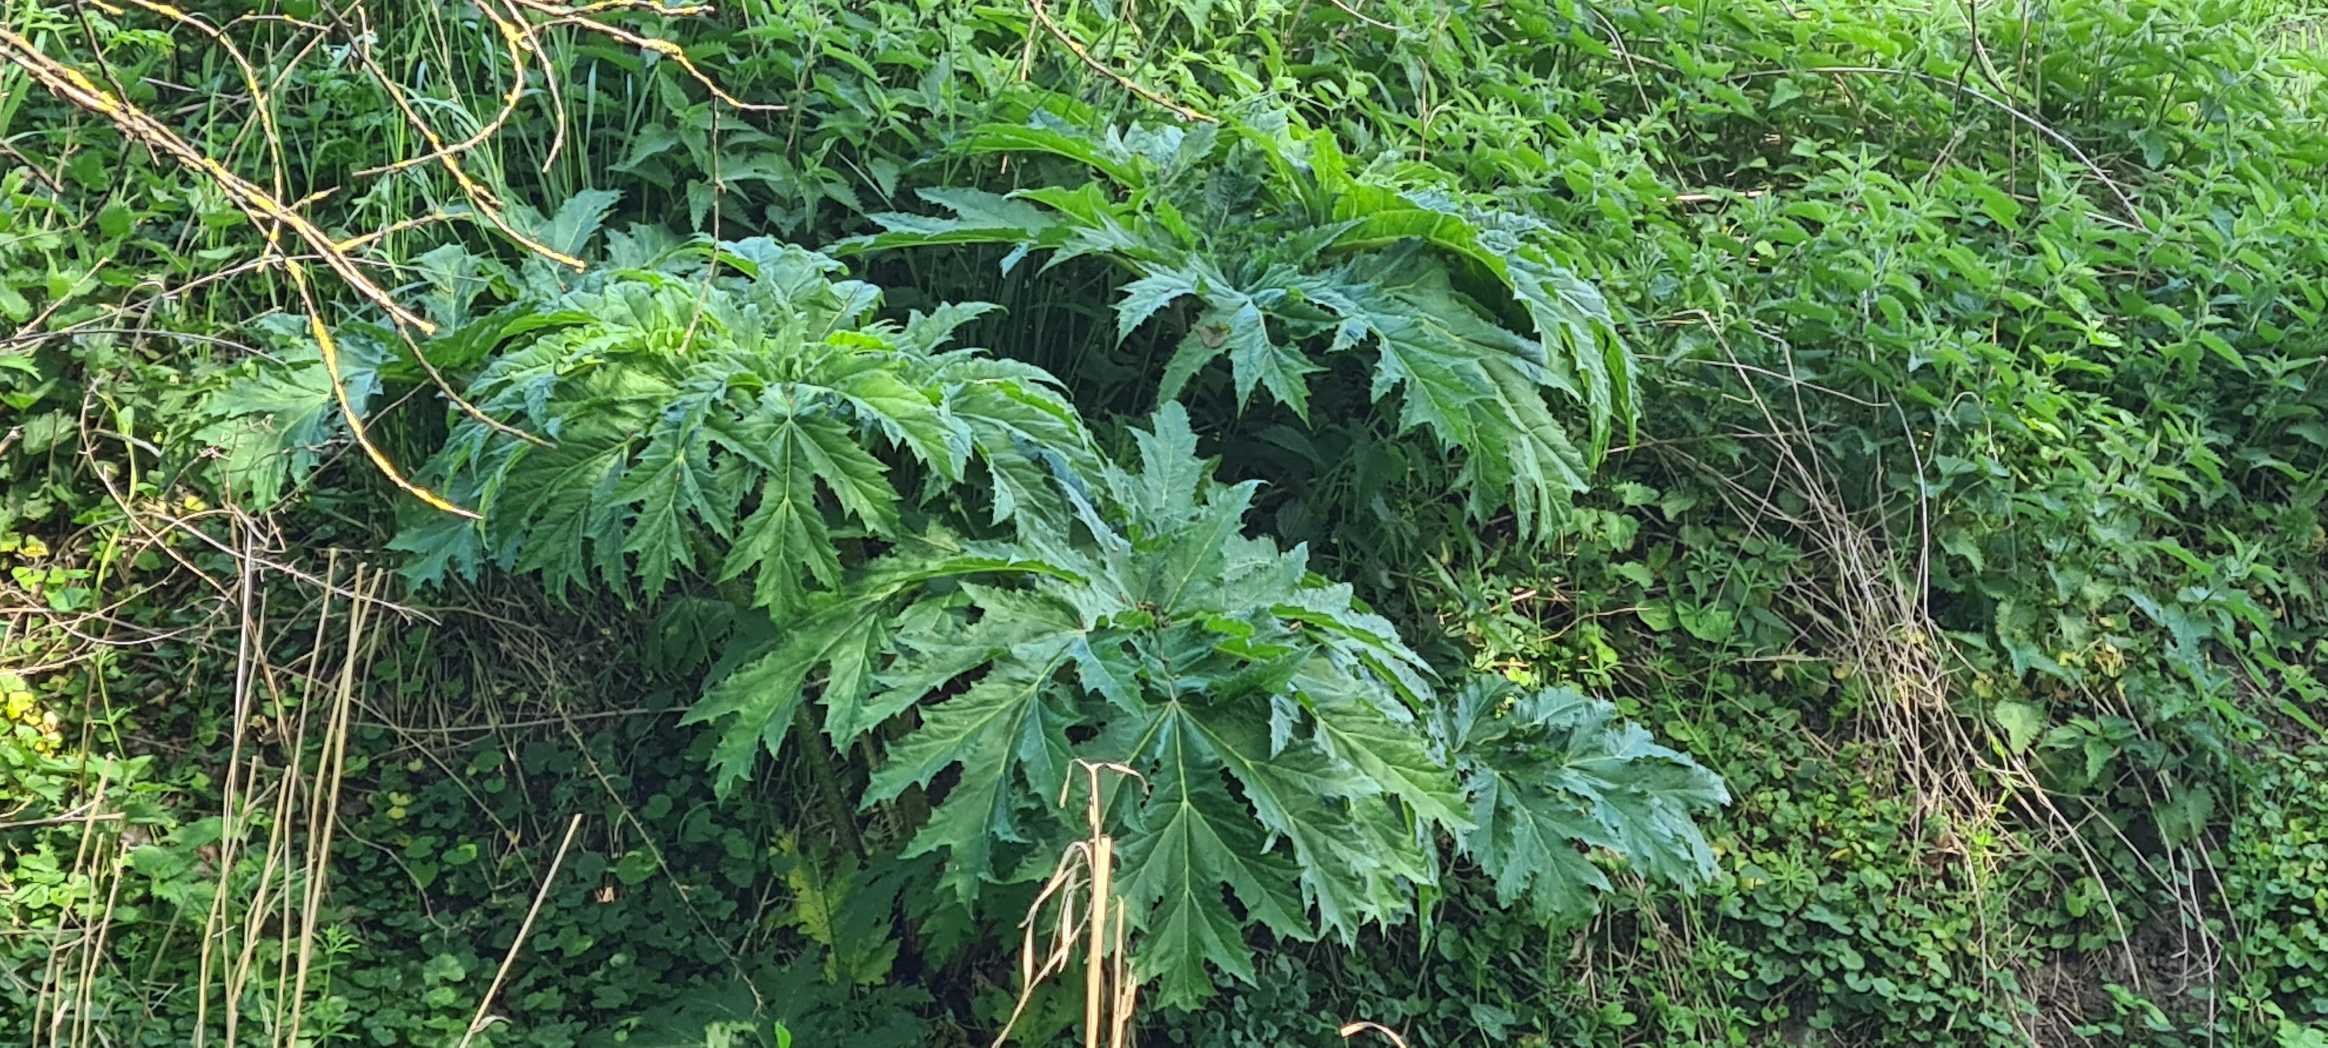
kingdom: Plantae
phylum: Tracheophyta
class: Magnoliopsida
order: Apiales
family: Apiaceae
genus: Heracleum
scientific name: Heracleum mantegazzianum
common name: Kæmpe-bjørneklo
